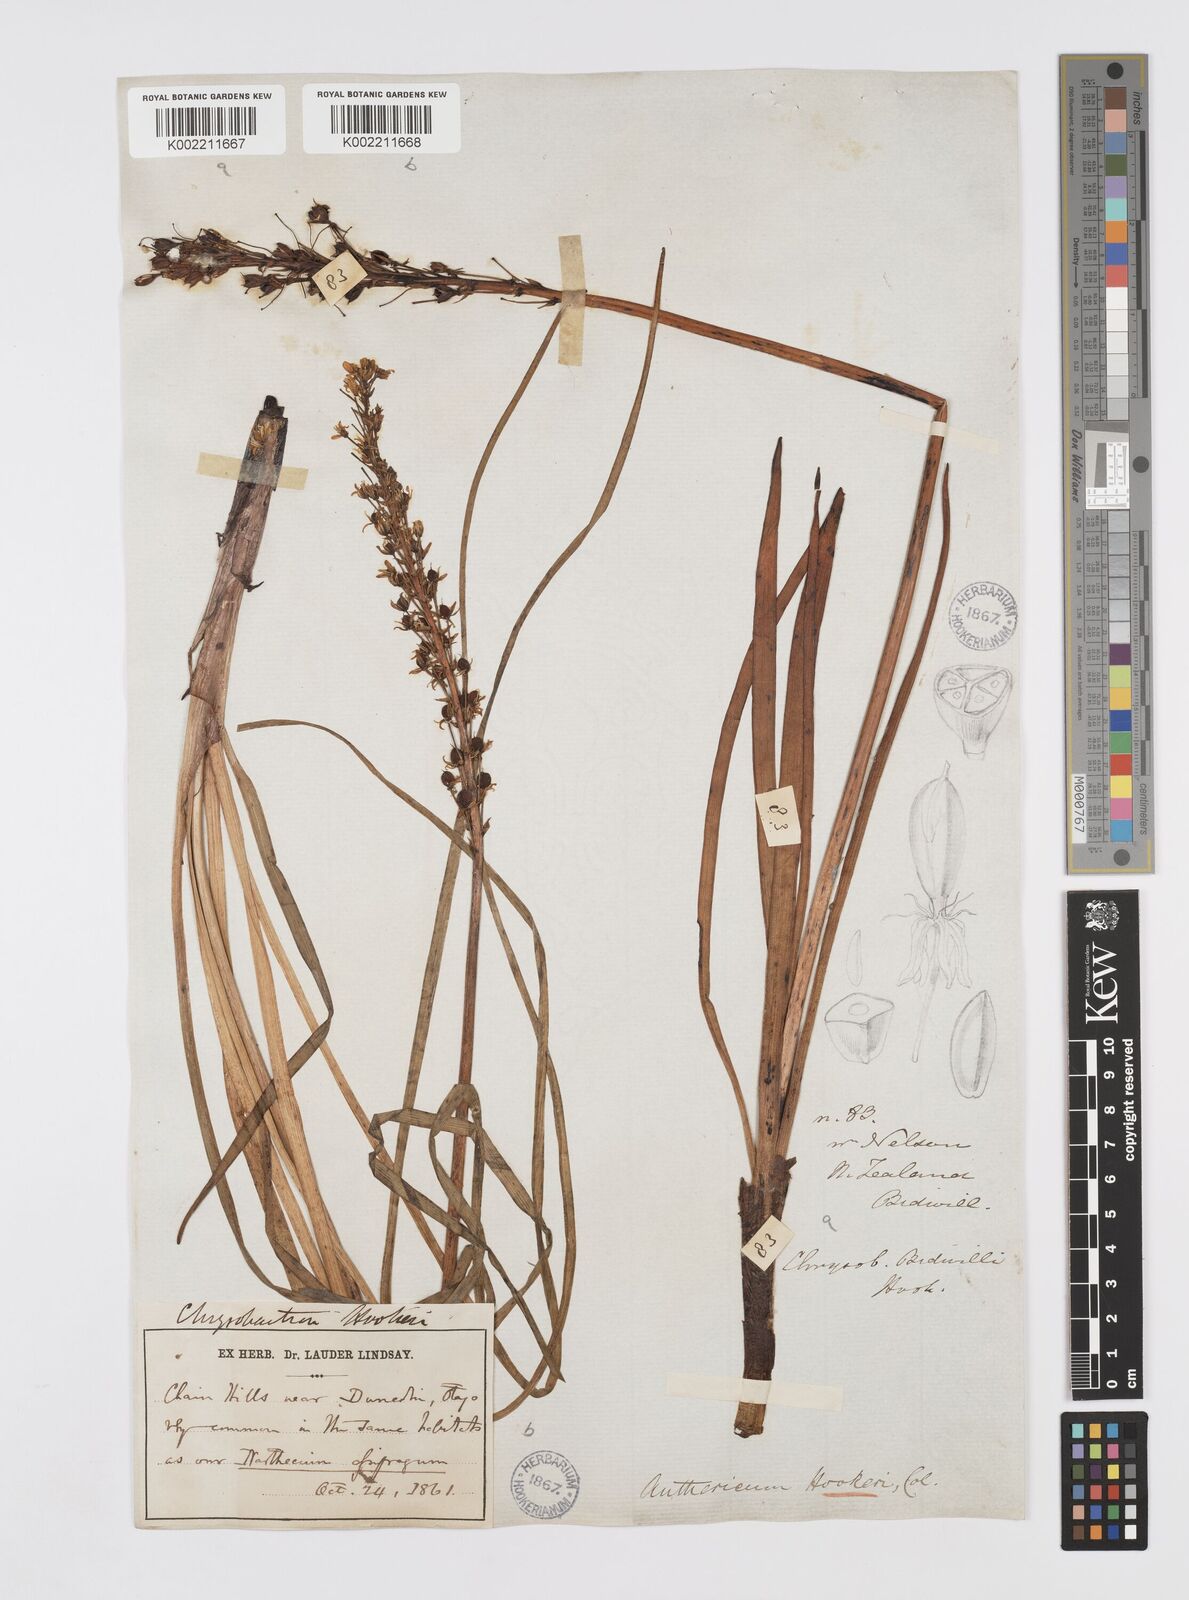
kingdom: Plantae
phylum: Tracheophyta
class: Liliopsida
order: Asparagales
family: Asphodelaceae
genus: Bulbinella
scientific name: Bulbinella hookeri
